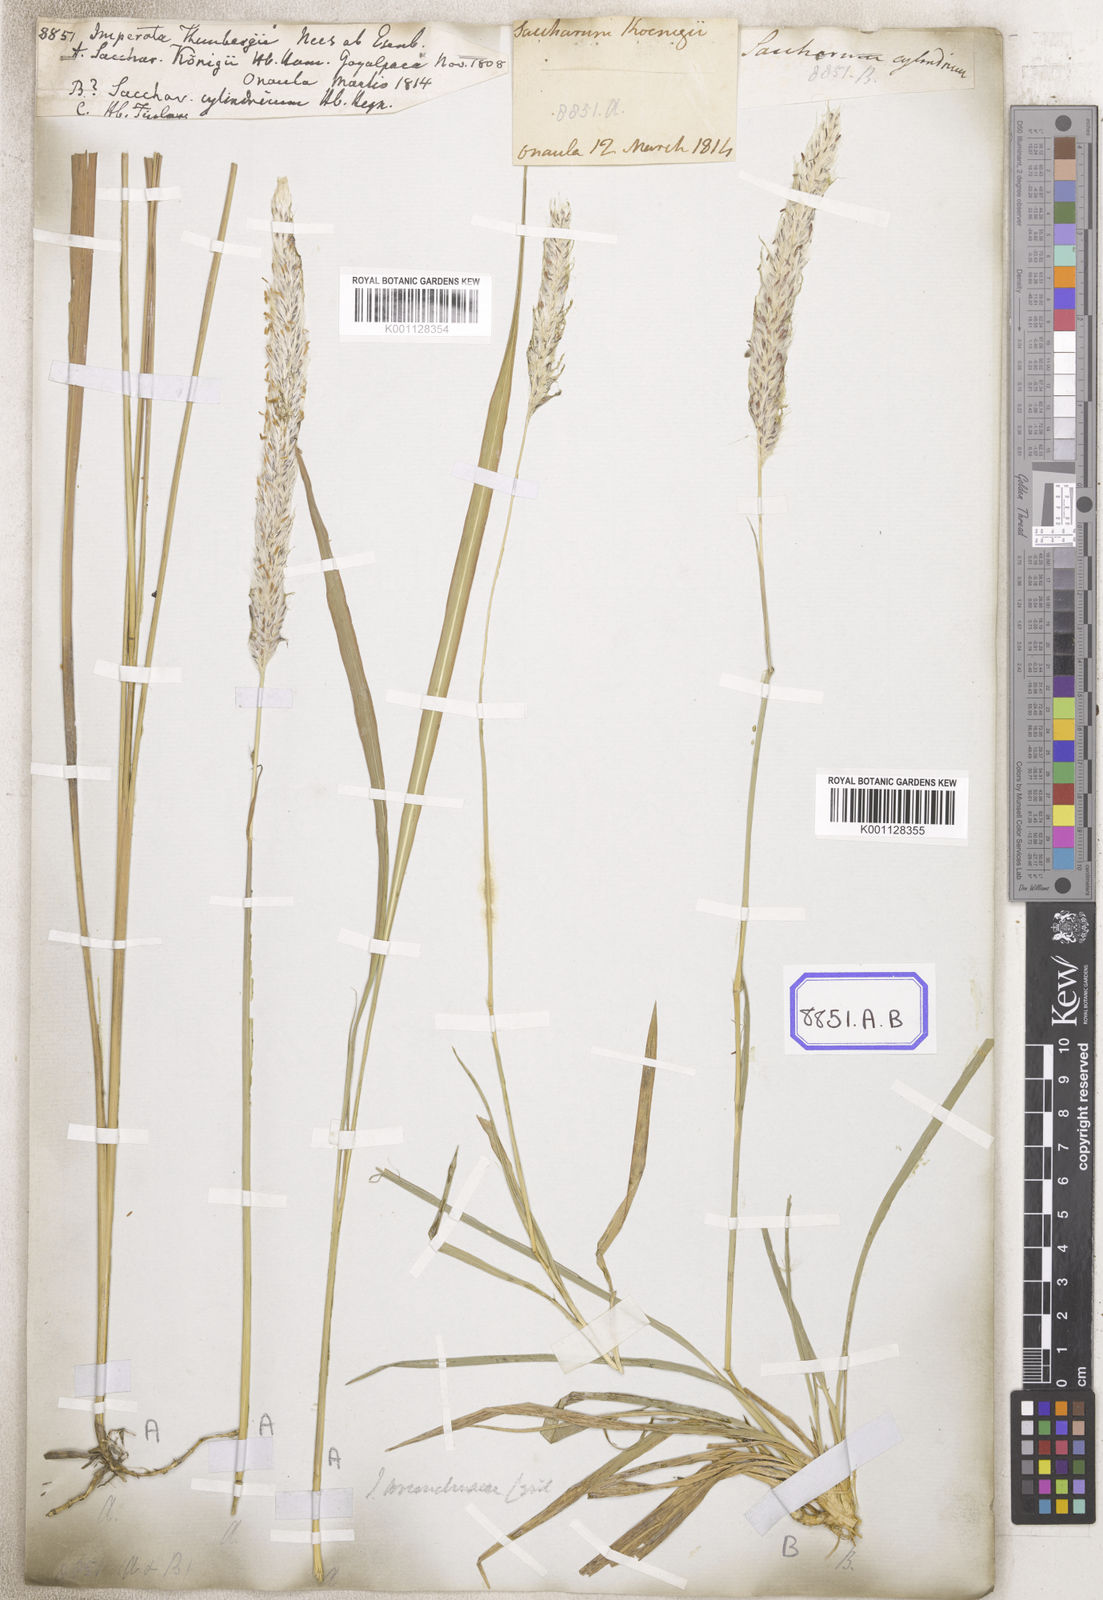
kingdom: Plantae
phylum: Tracheophyta
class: Liliopsida
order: Poales
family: Poaceae
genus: Imperata
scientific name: Imperata
